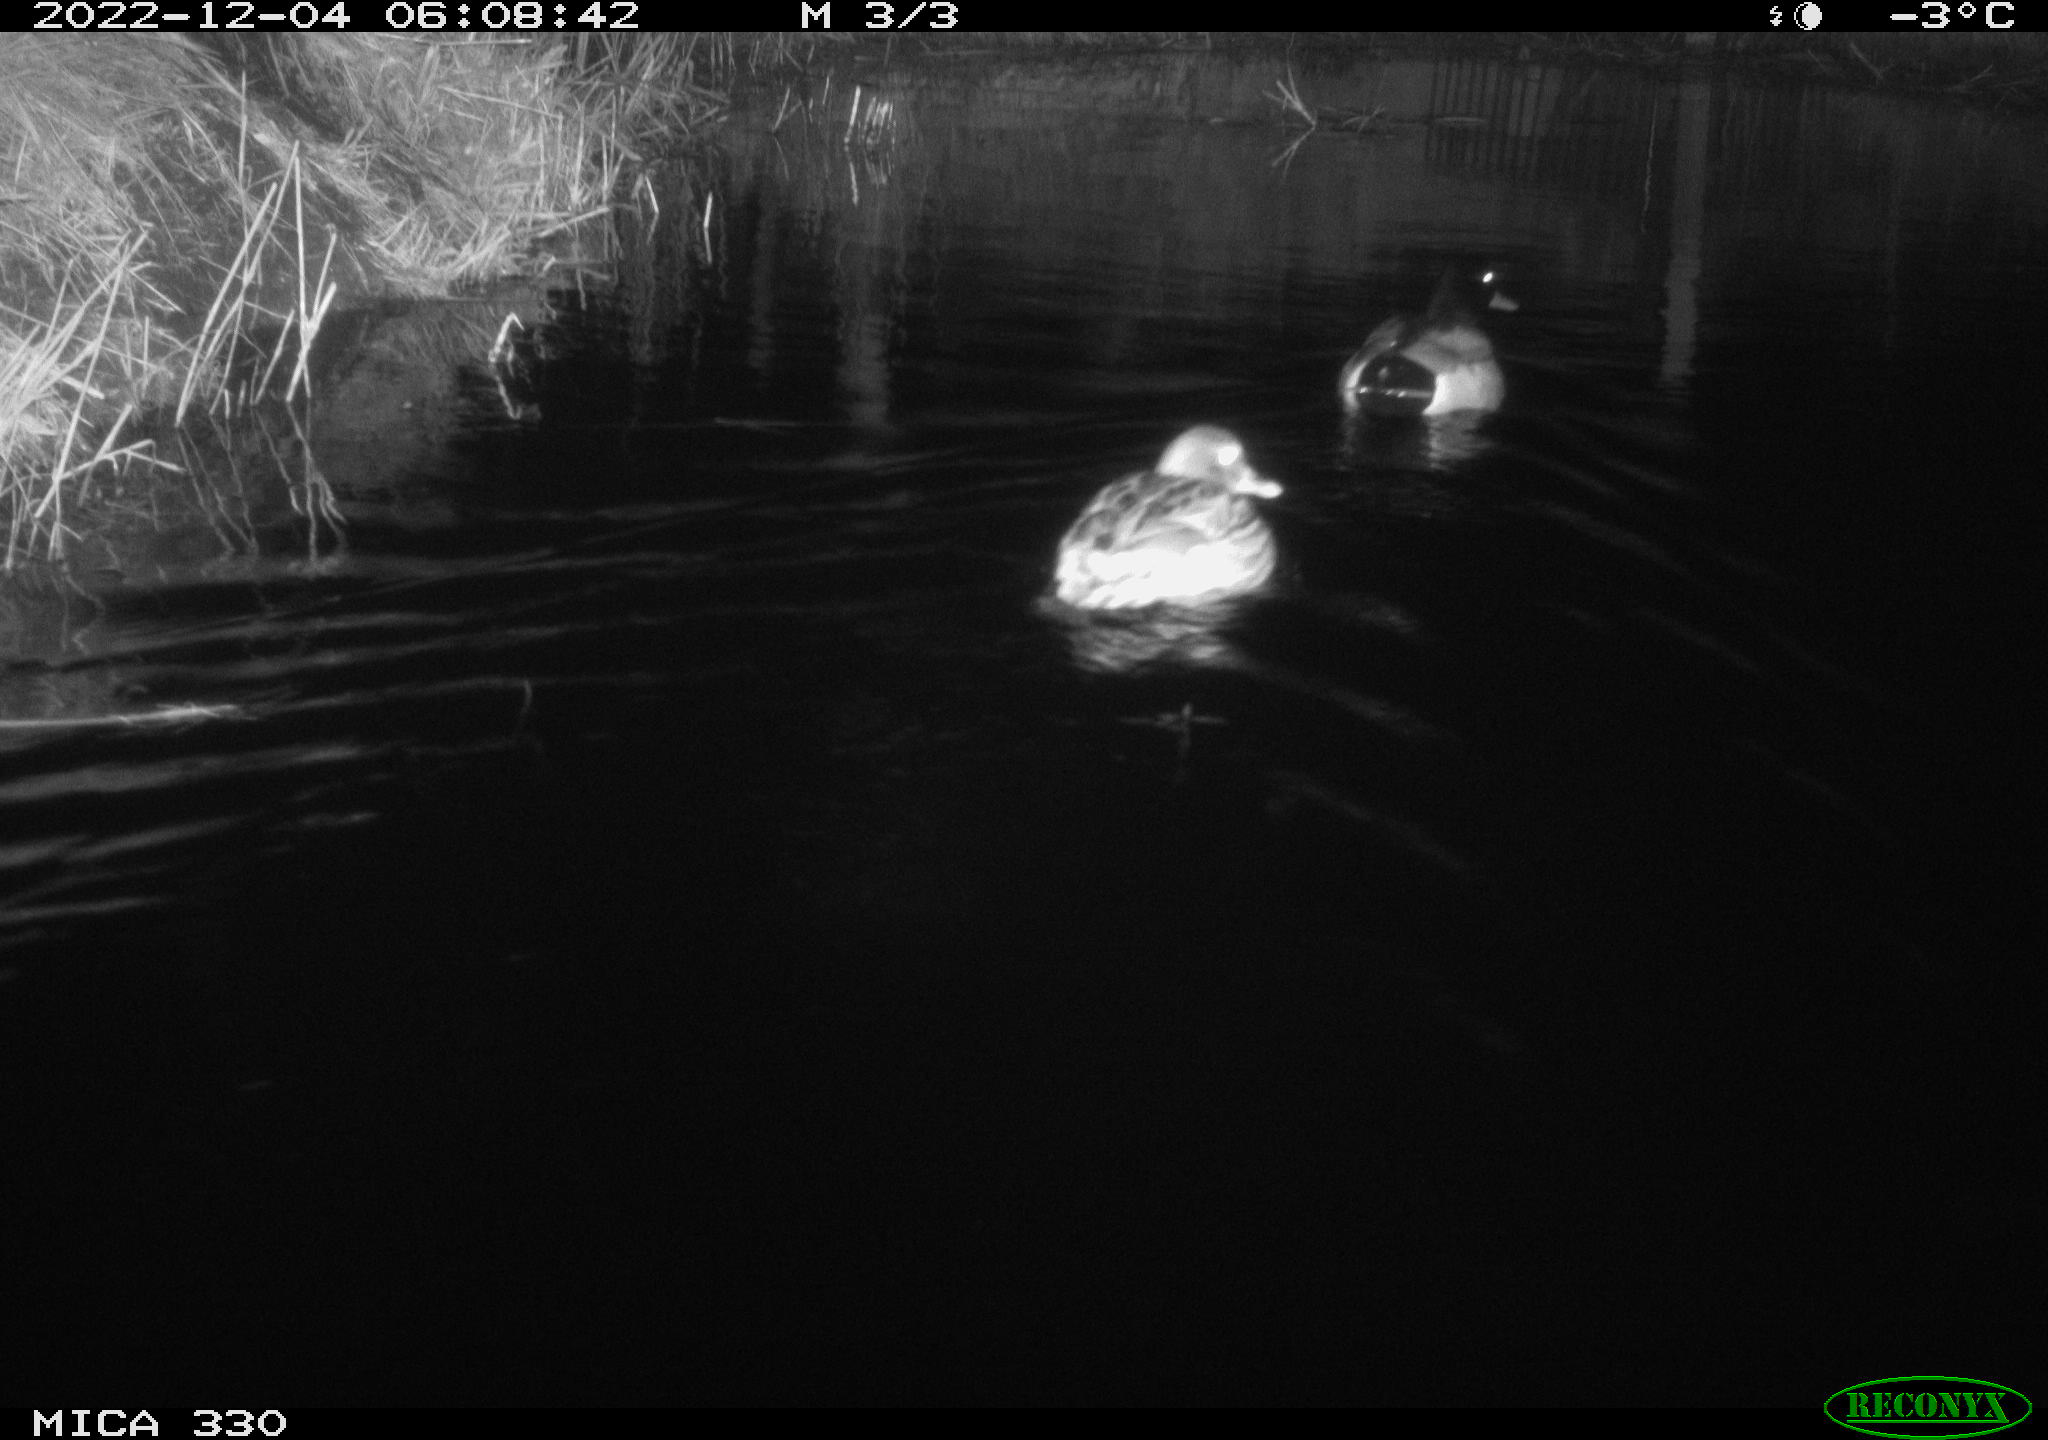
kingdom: Animalia
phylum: Chordata
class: Aves
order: Anseriformes
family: Anatidae
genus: Anas
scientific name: Anas
